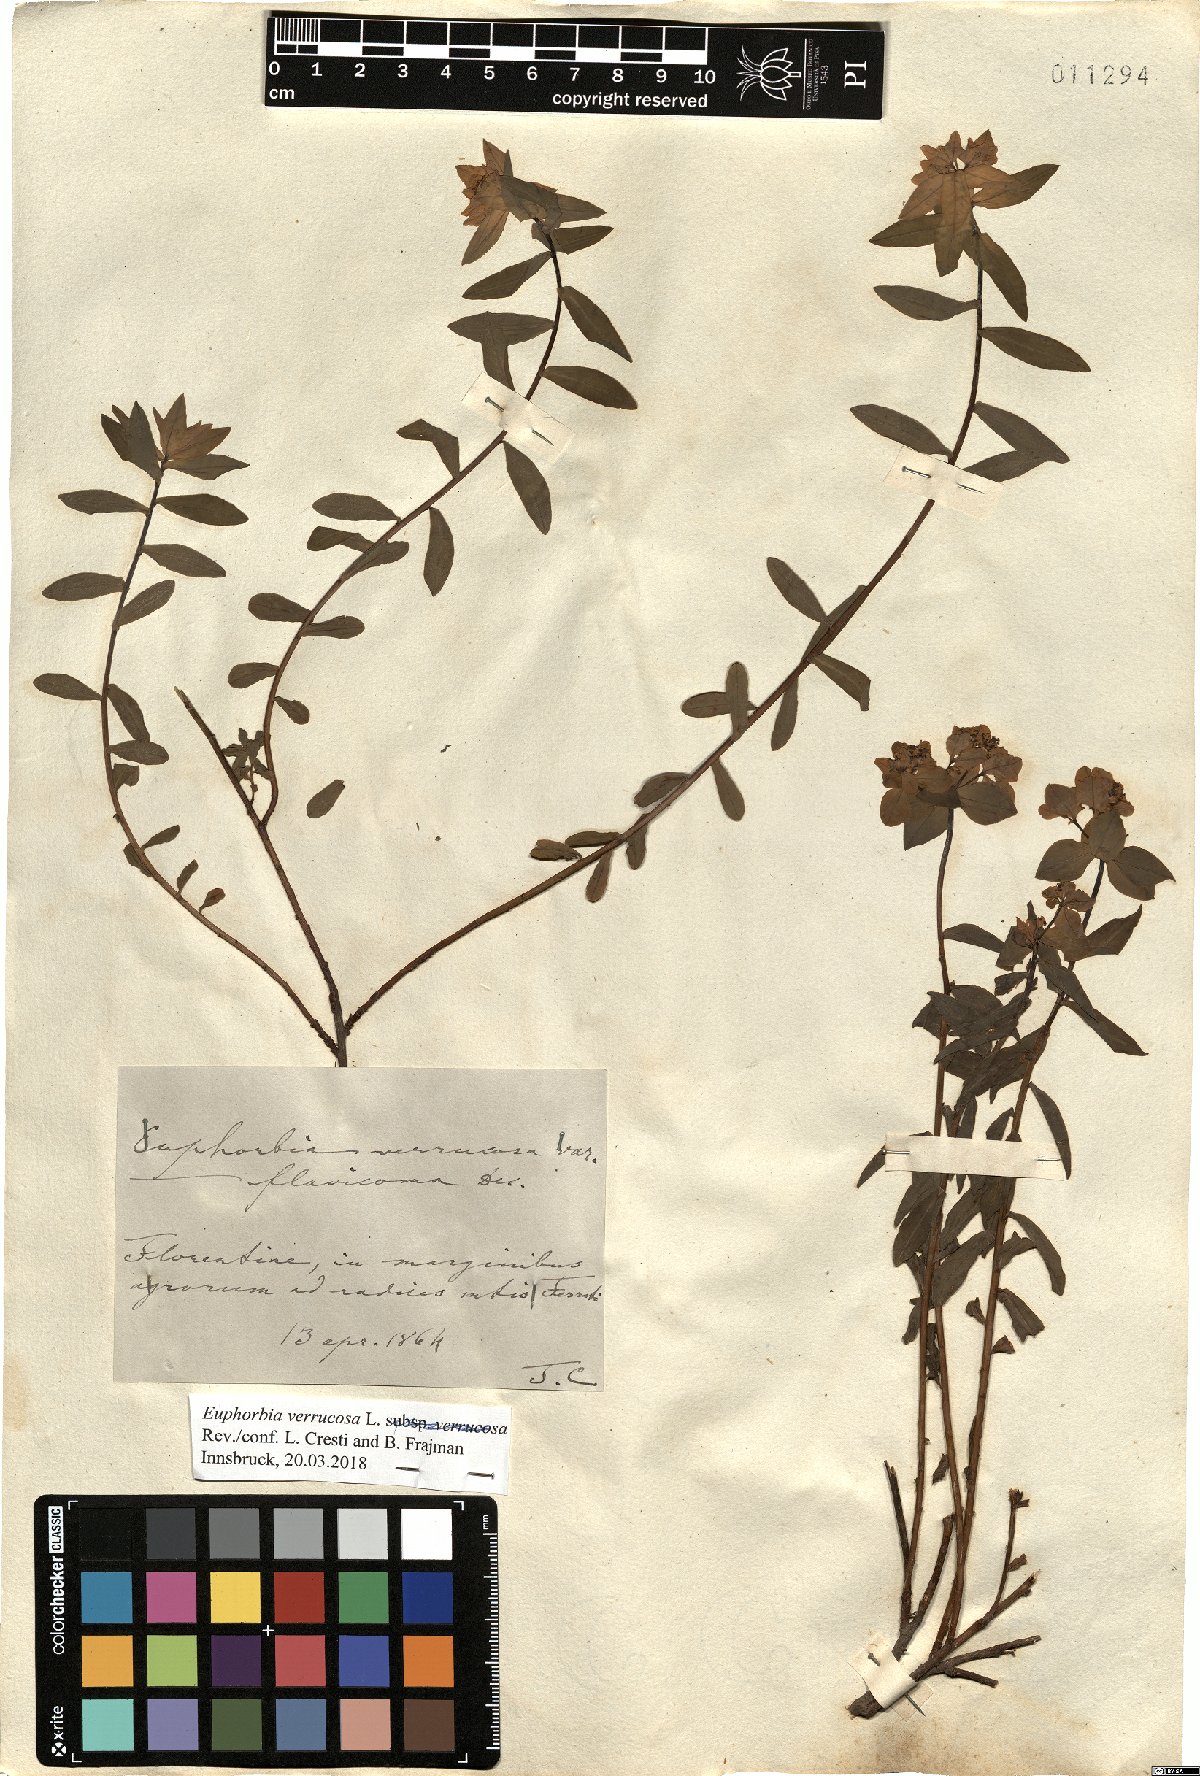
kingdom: Plantae
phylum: Tracheophyta
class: Magnoliopsida
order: Malpighiales
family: Euphorbiaceae
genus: Euphorbia
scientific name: Euphorbia verrucosa
